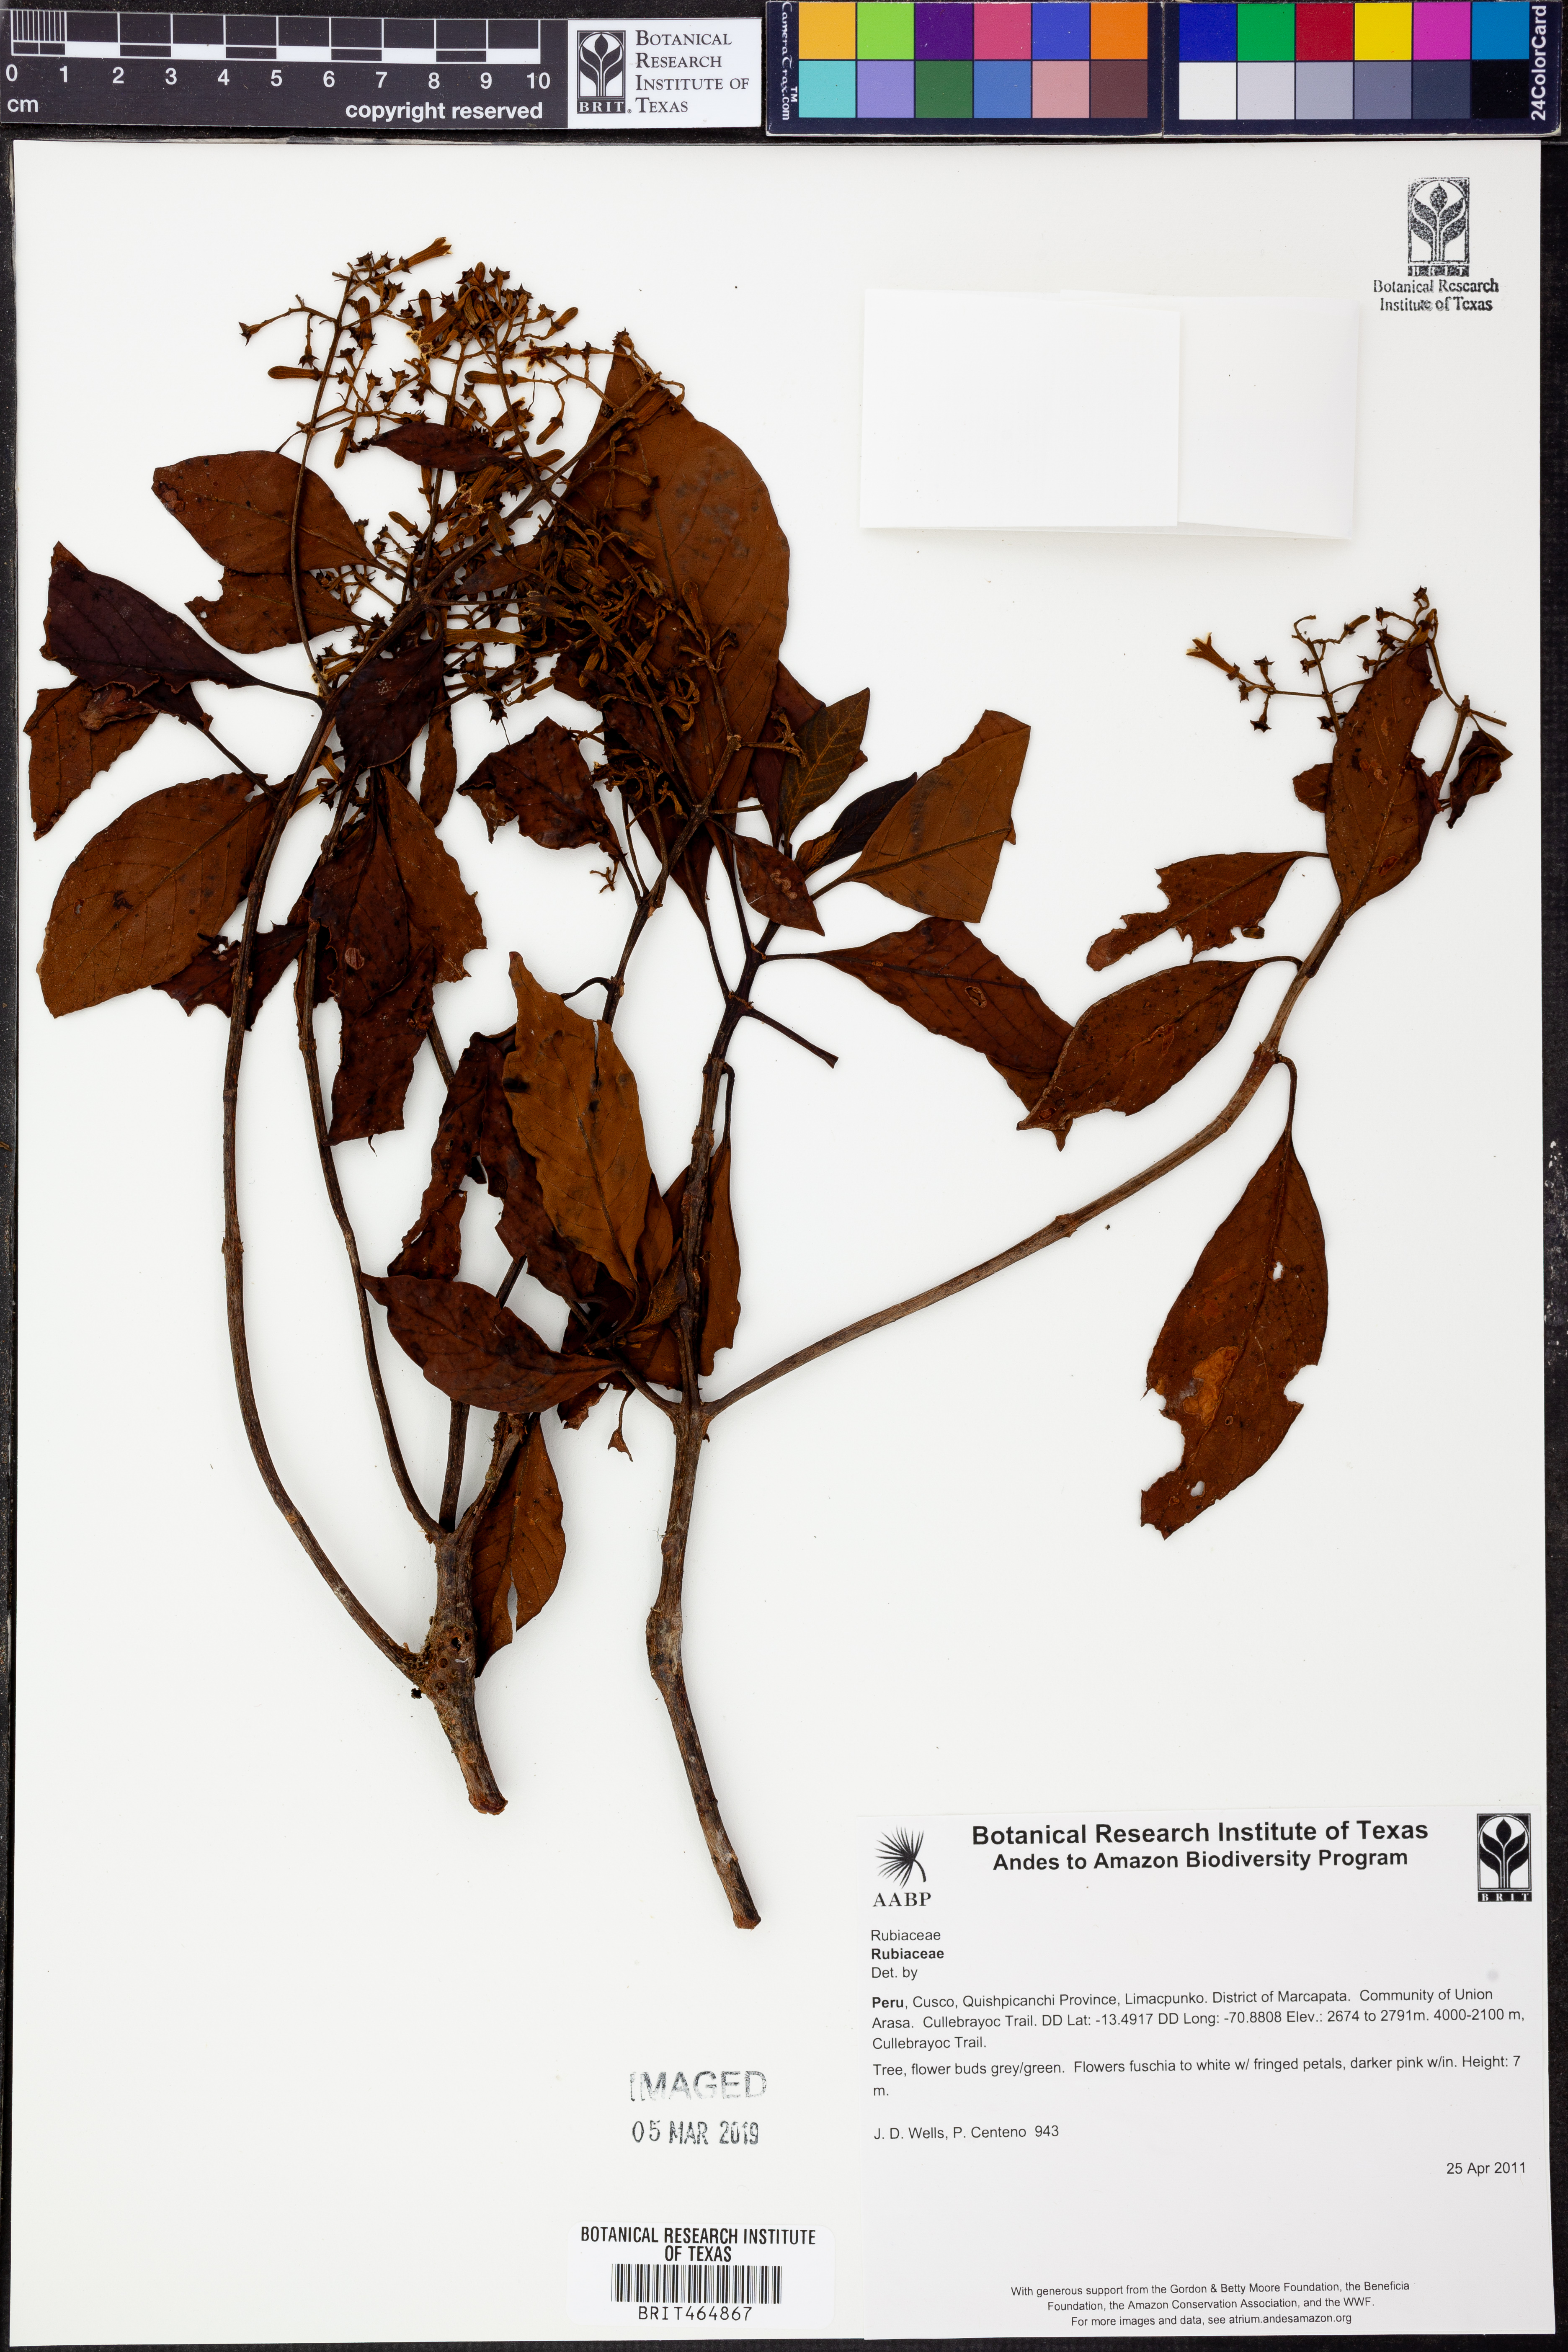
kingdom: Plantae
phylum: Tracheophyta
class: Magnoliopsida
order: Gentianales
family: Rubiaceae
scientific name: Rubiaceae
